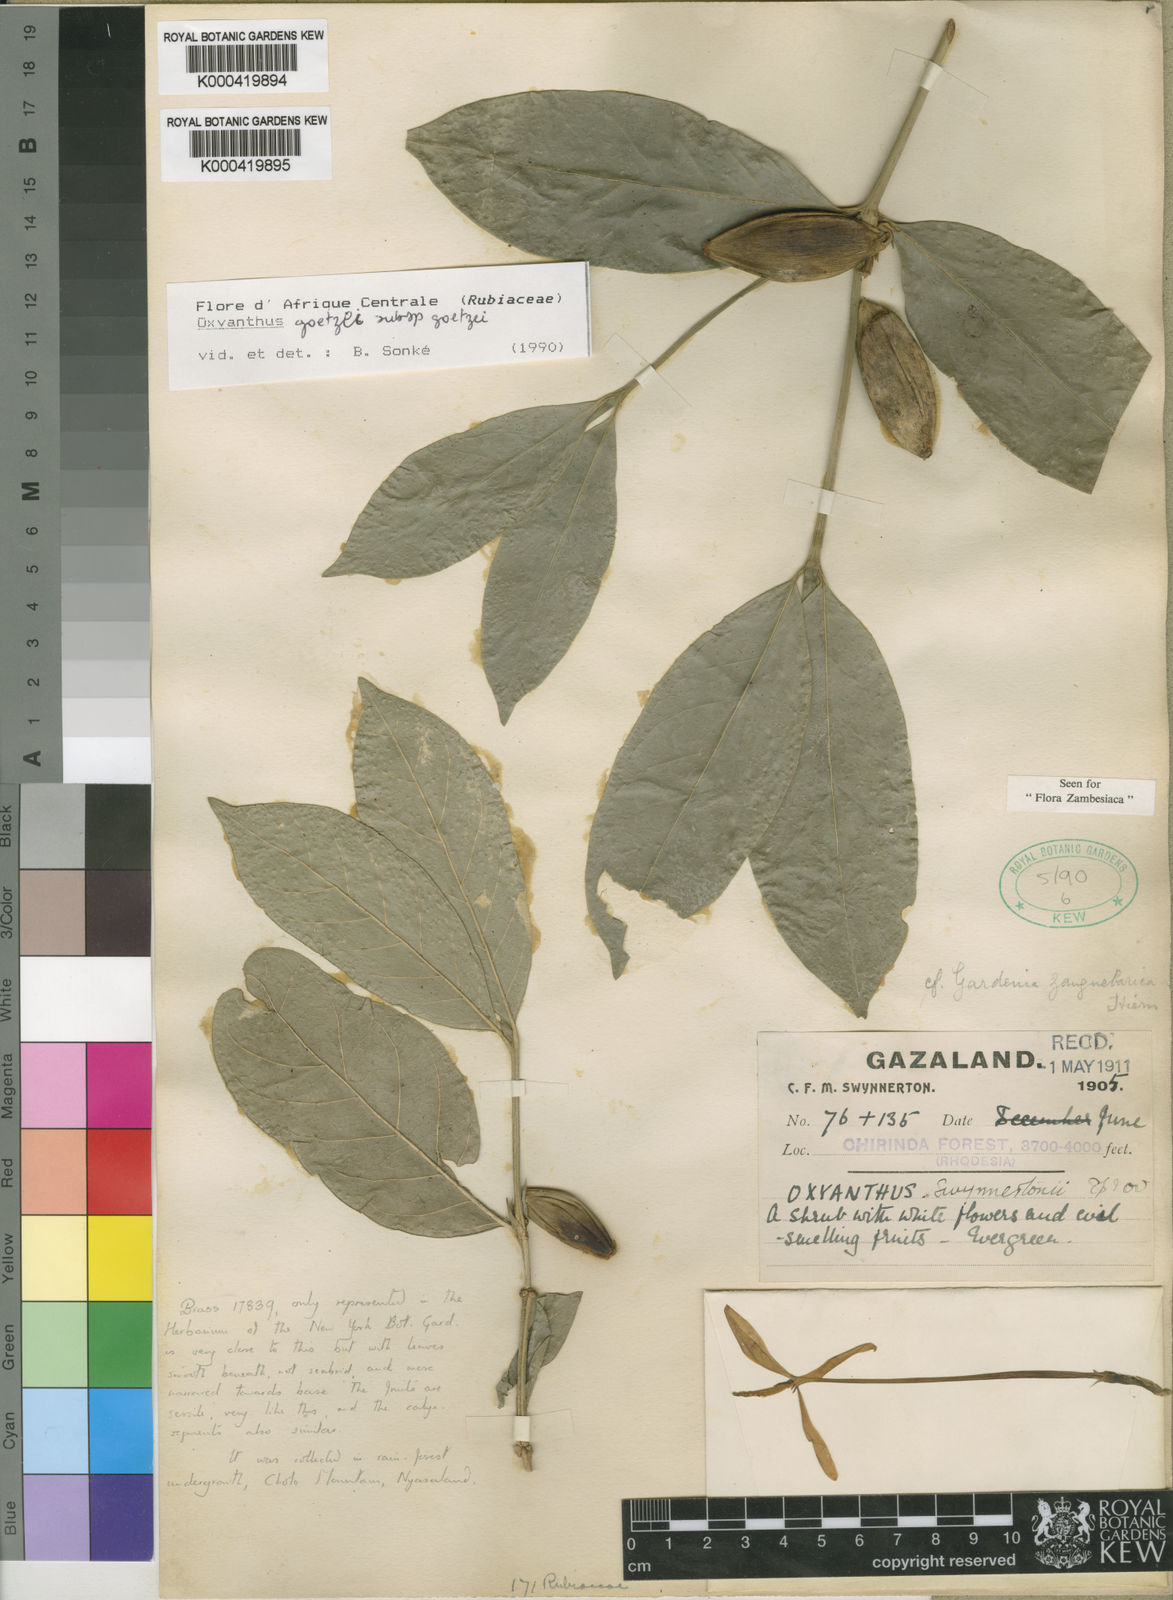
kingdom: Plantae
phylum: Tracheophyta
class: Magnoliopsida
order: Gentianales
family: Rubiaceae
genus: Oxyanthus
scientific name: Oxyanthus goetzei
